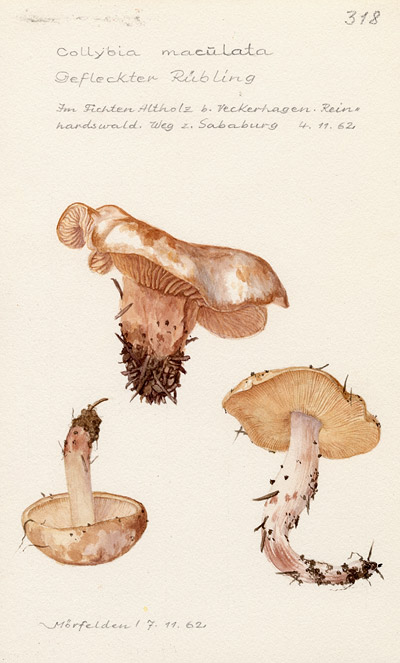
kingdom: Fungi
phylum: Basidiomycota
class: Agaricomycetes
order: Agaricales
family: Omphalotaceae
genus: Rhodocollybia
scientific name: Rhodocollybia maculata
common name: Spotted tough-shank
